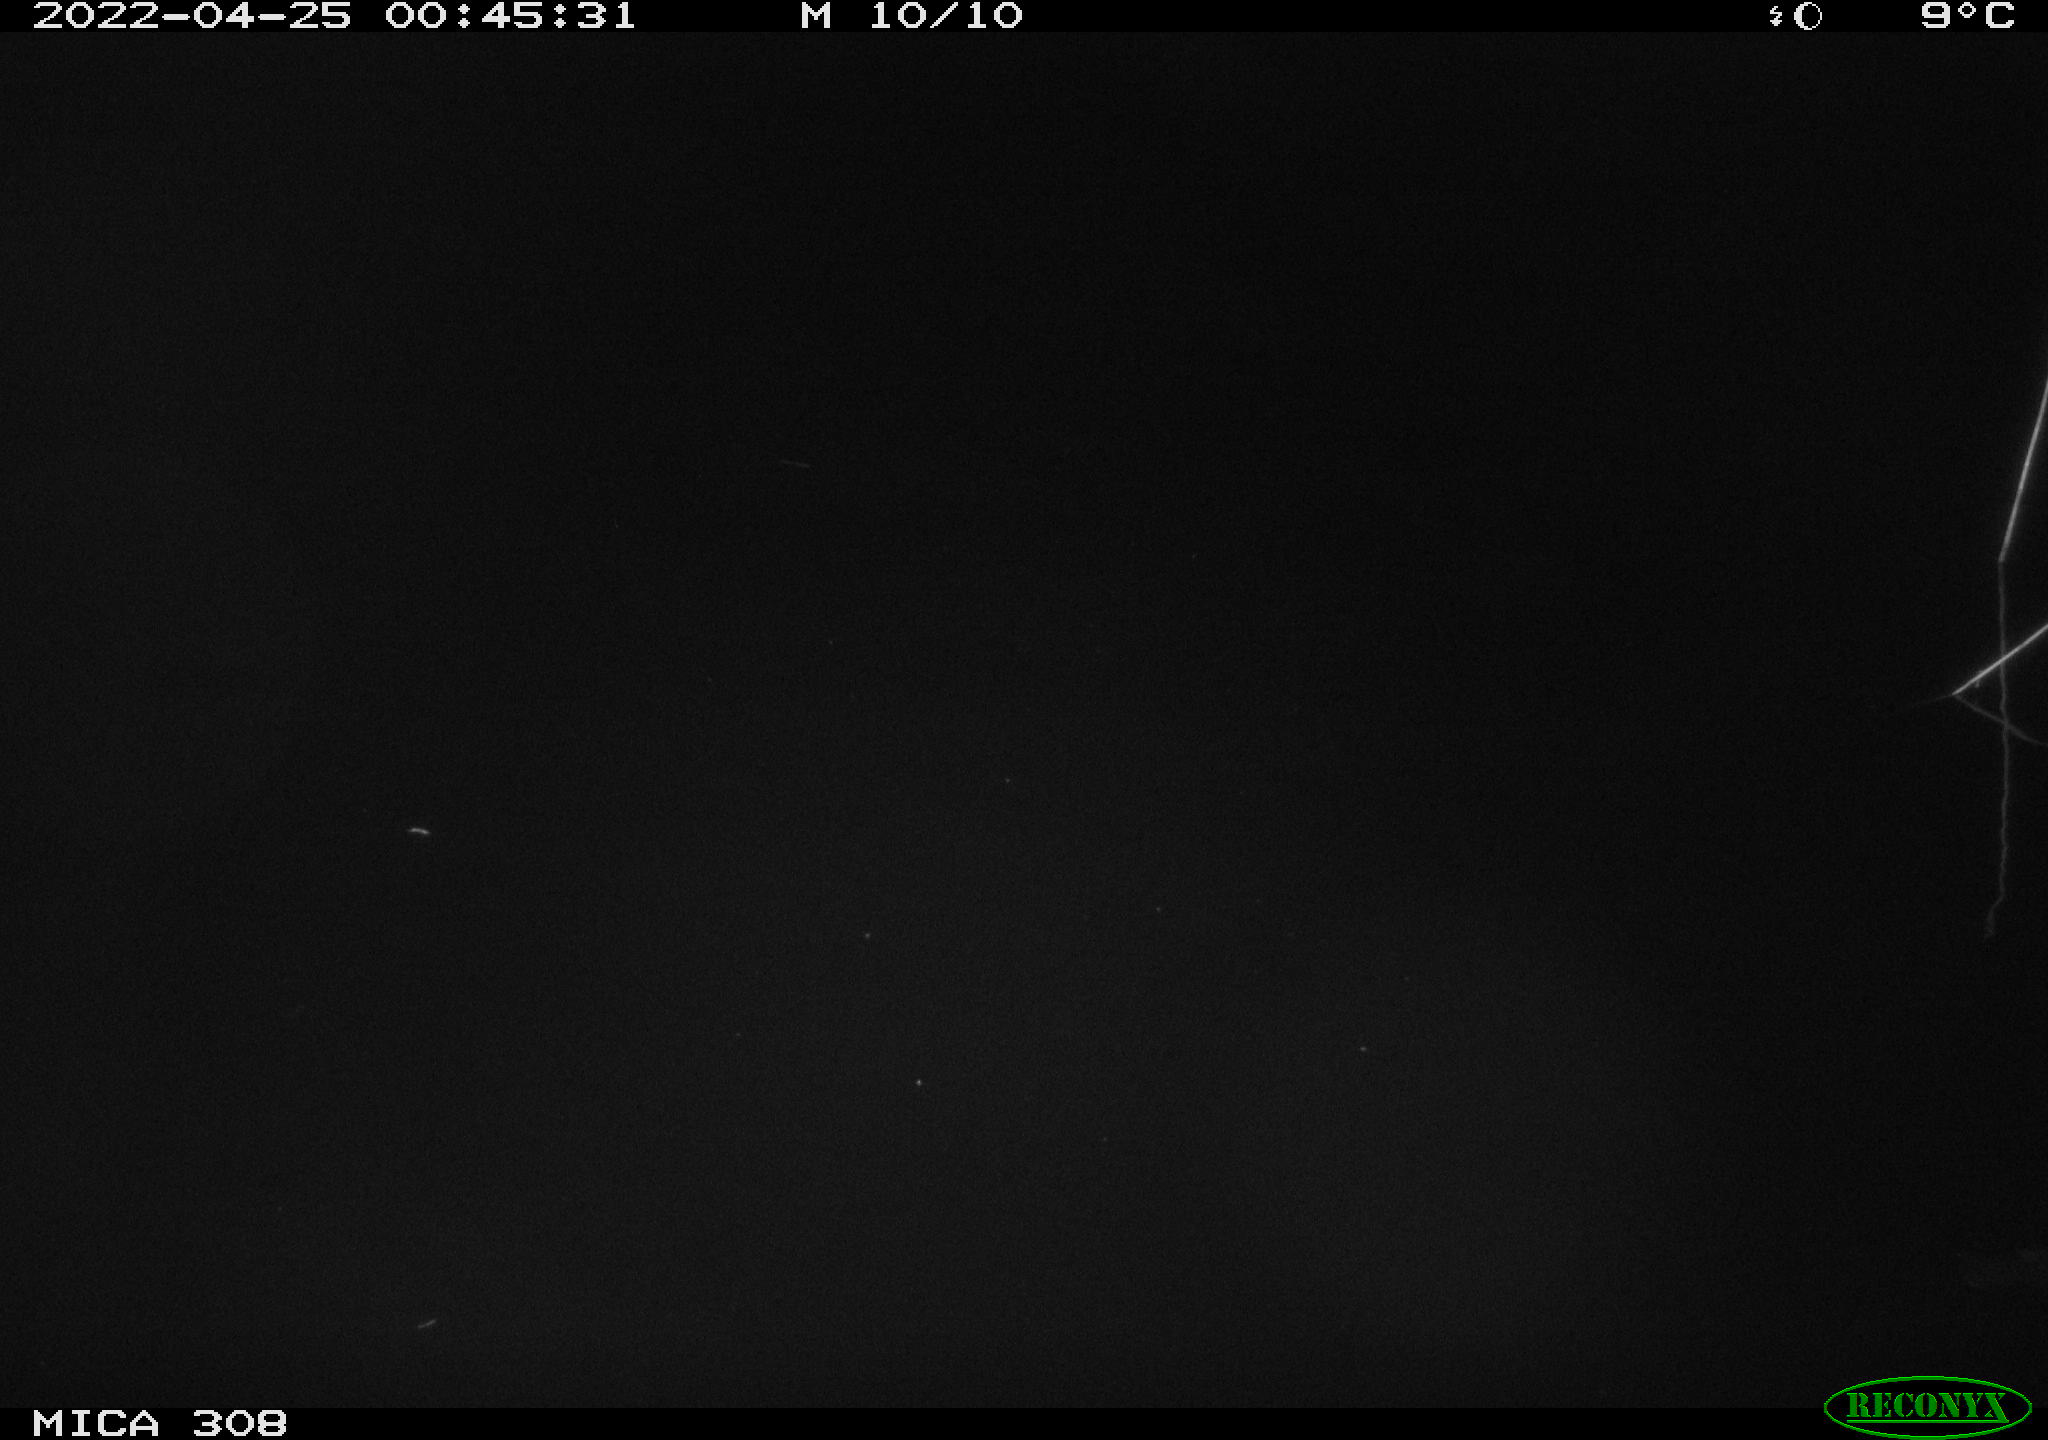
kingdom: Animalia
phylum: Chordata
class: Aves
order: Anseriformes
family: Anatidae
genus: Anas
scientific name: Anas platyrhynchos
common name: Mallard
